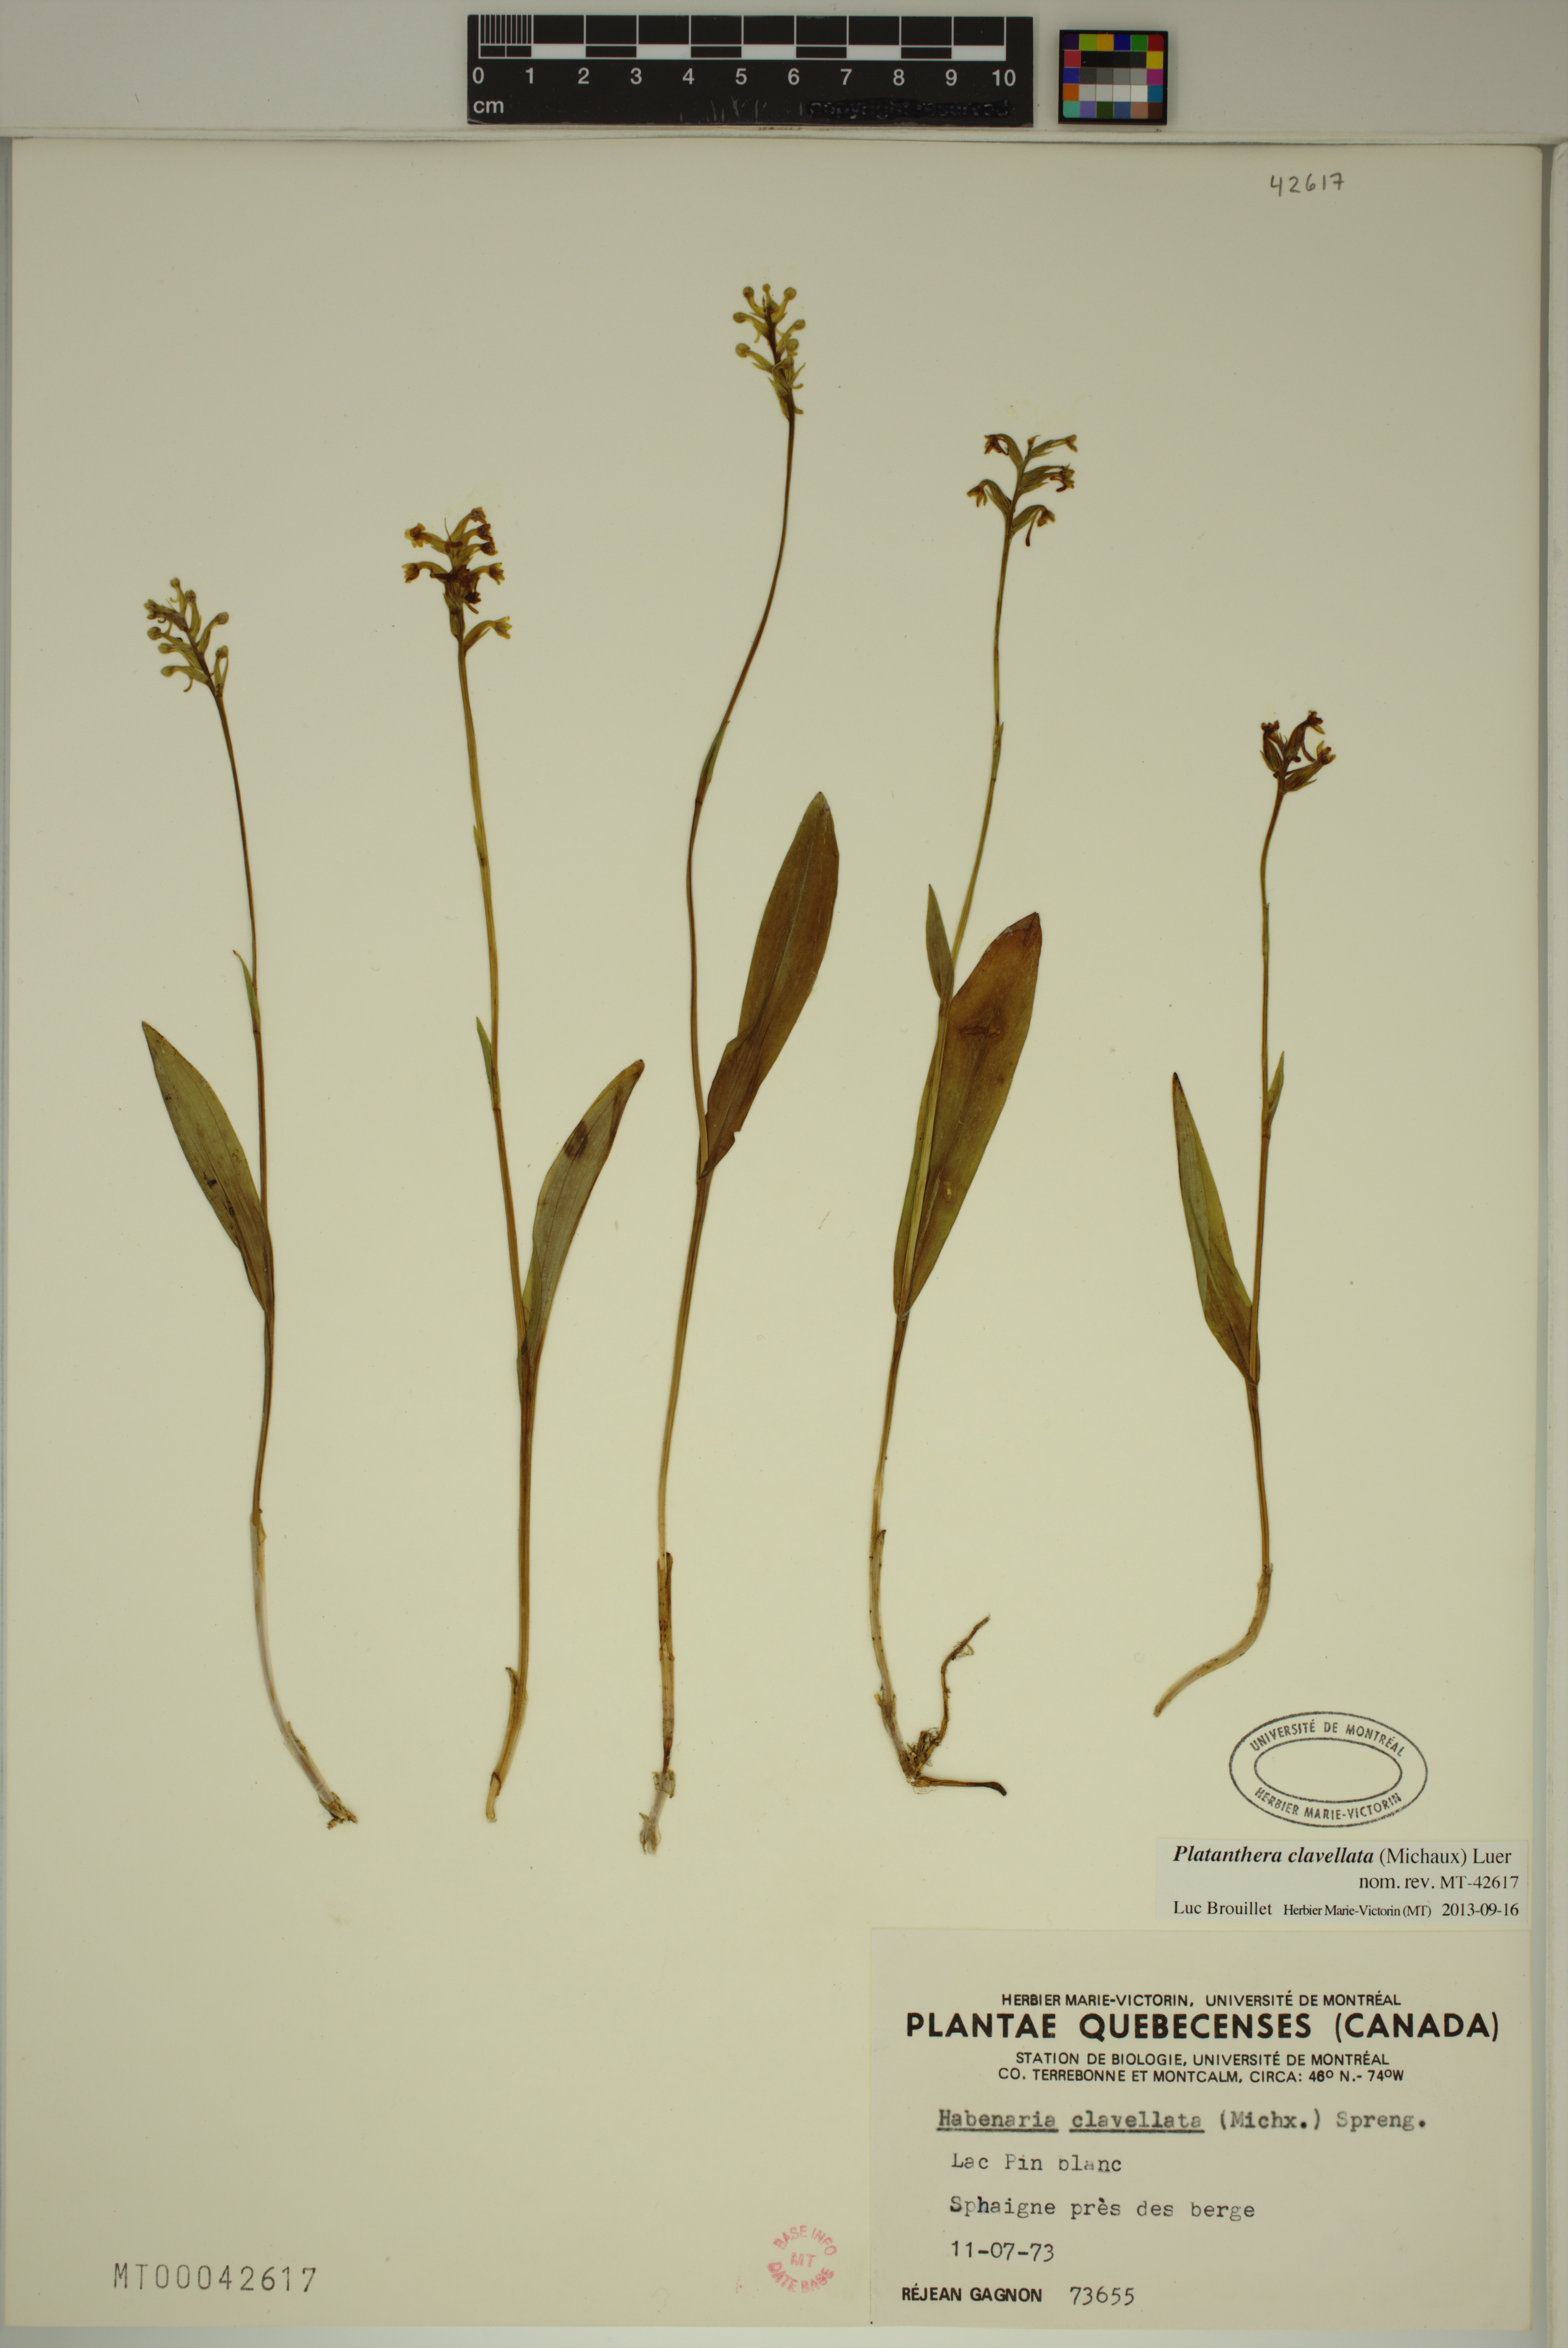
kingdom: Plantae
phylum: Tracheophyta
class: Liliopsida
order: Asparagales
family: Orchidaceae
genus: Platanthera
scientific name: Platanthera clavellata
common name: Club-spur orchid
